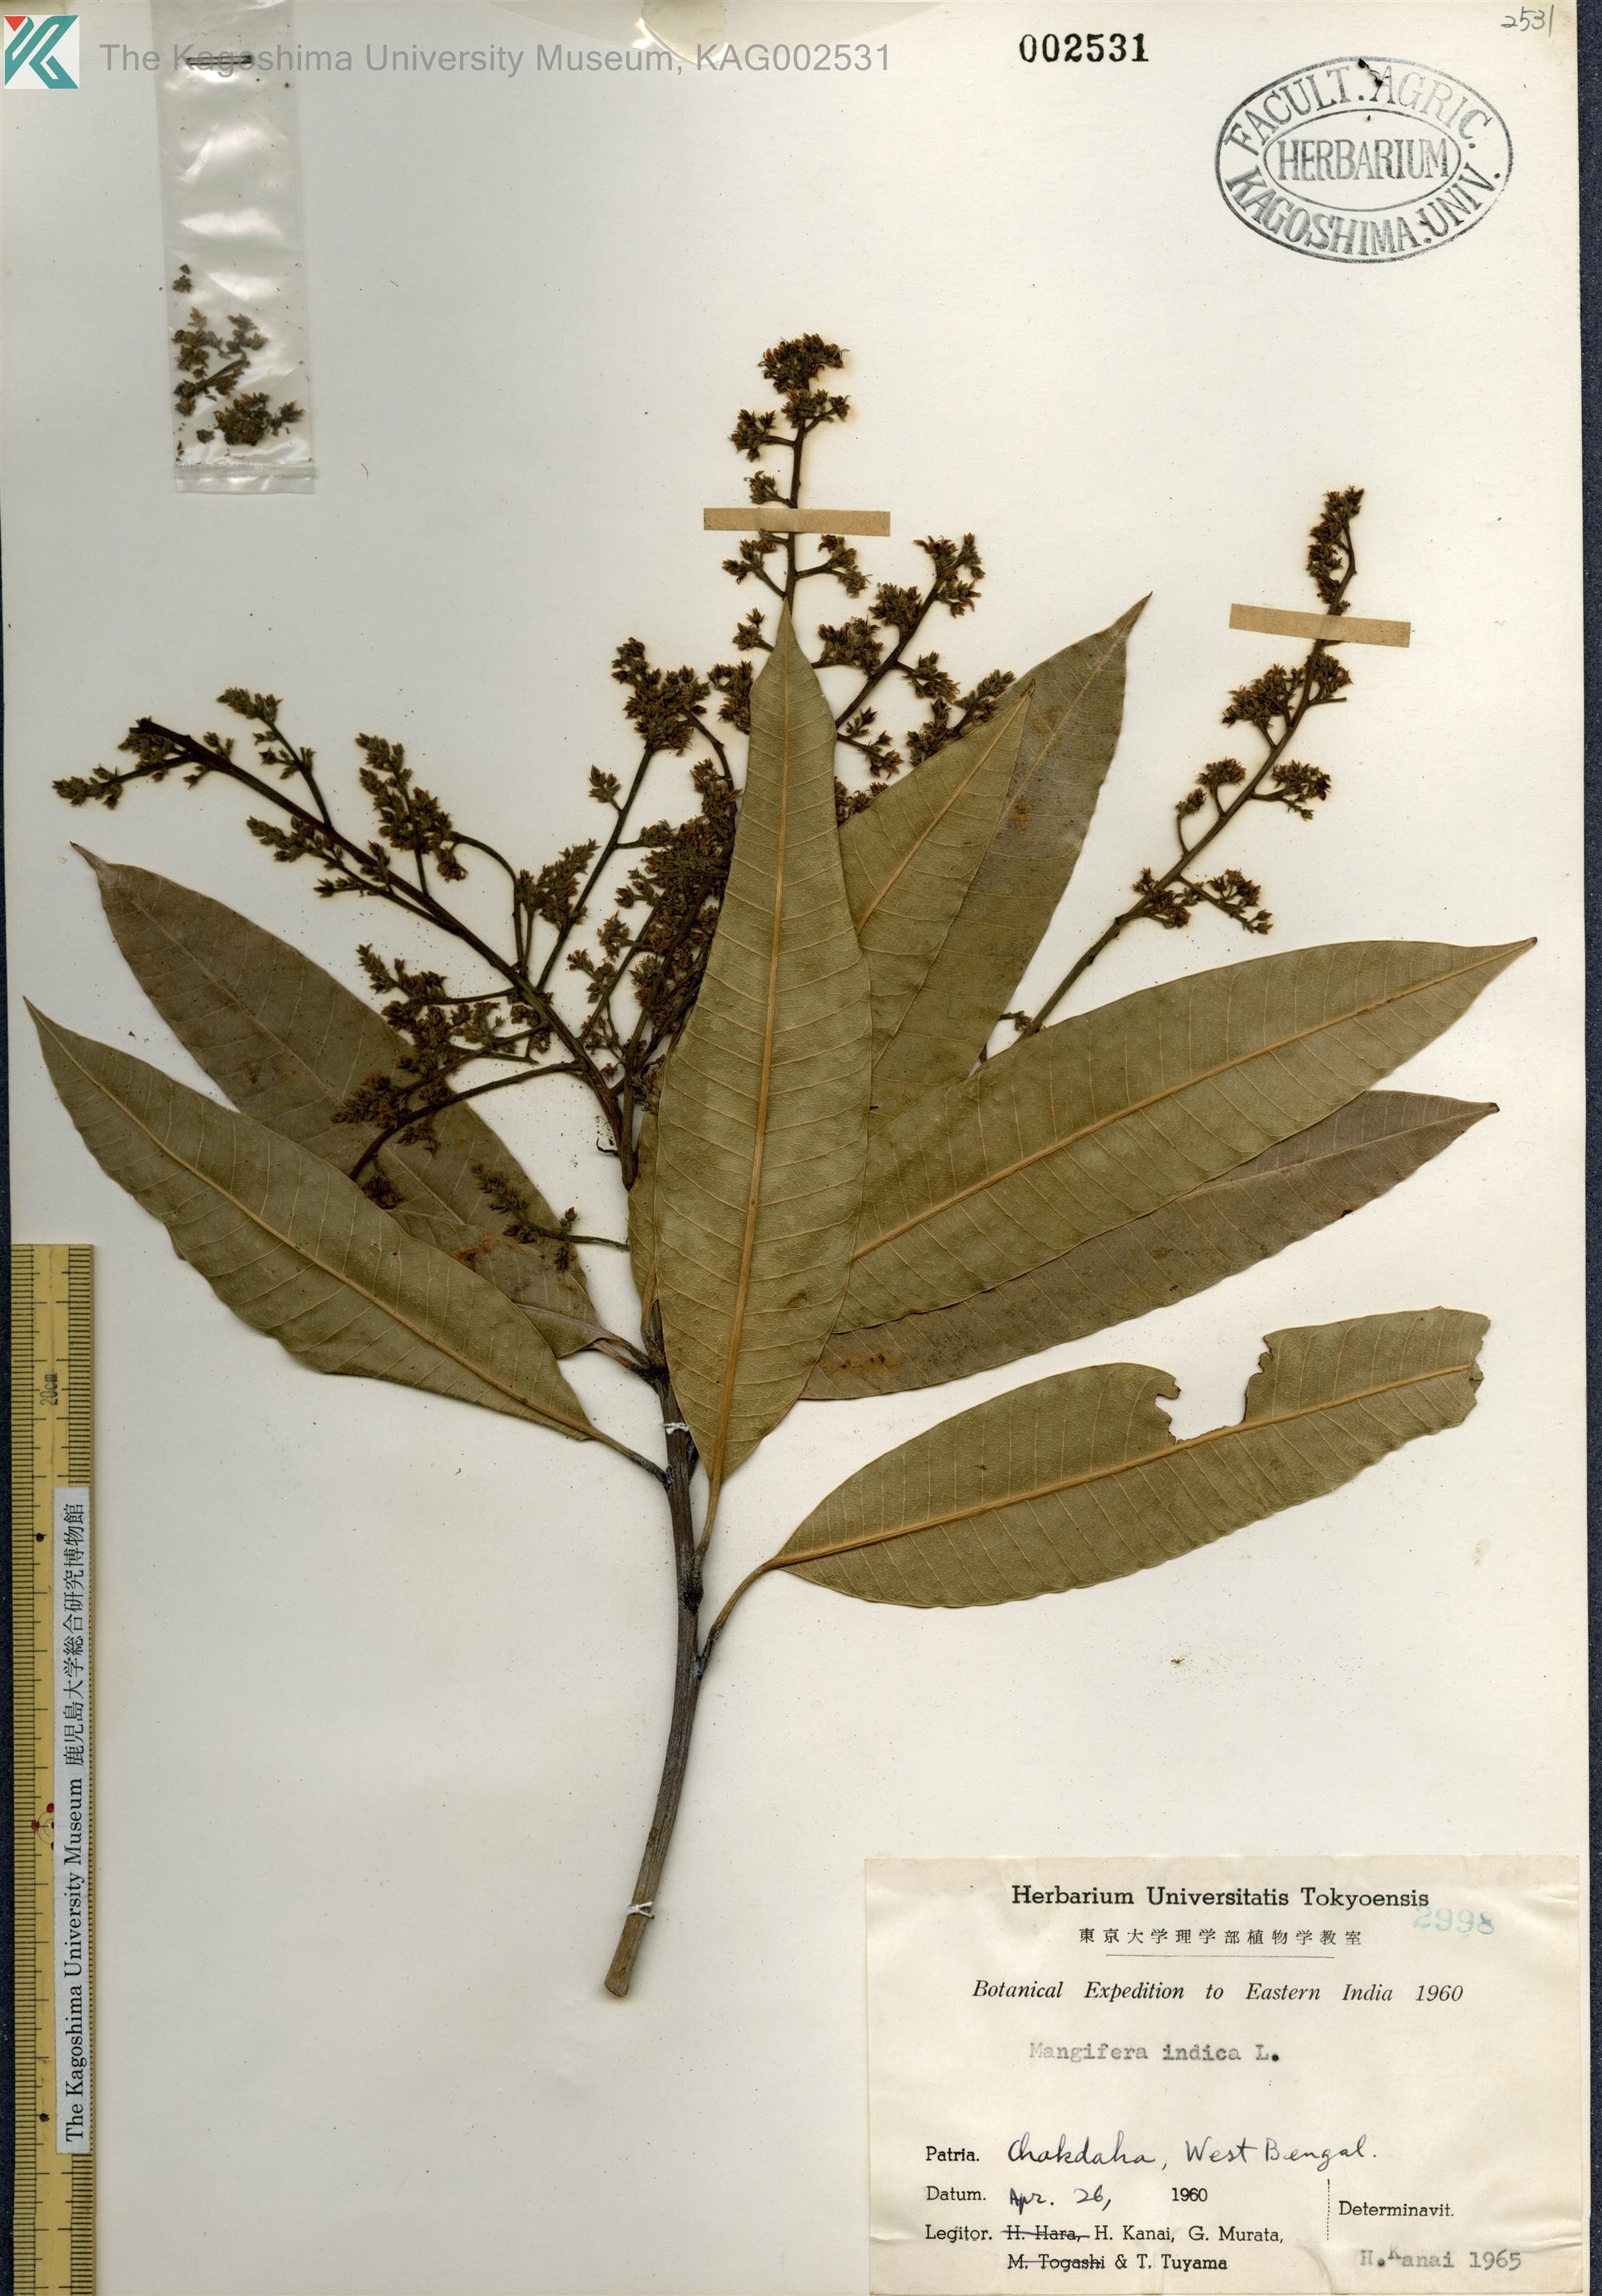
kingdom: Plantae
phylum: Tracheophyta
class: Magnoliopsida
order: Sapindales
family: Anacardiaceae
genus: Mangifera
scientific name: Mangifera indica
